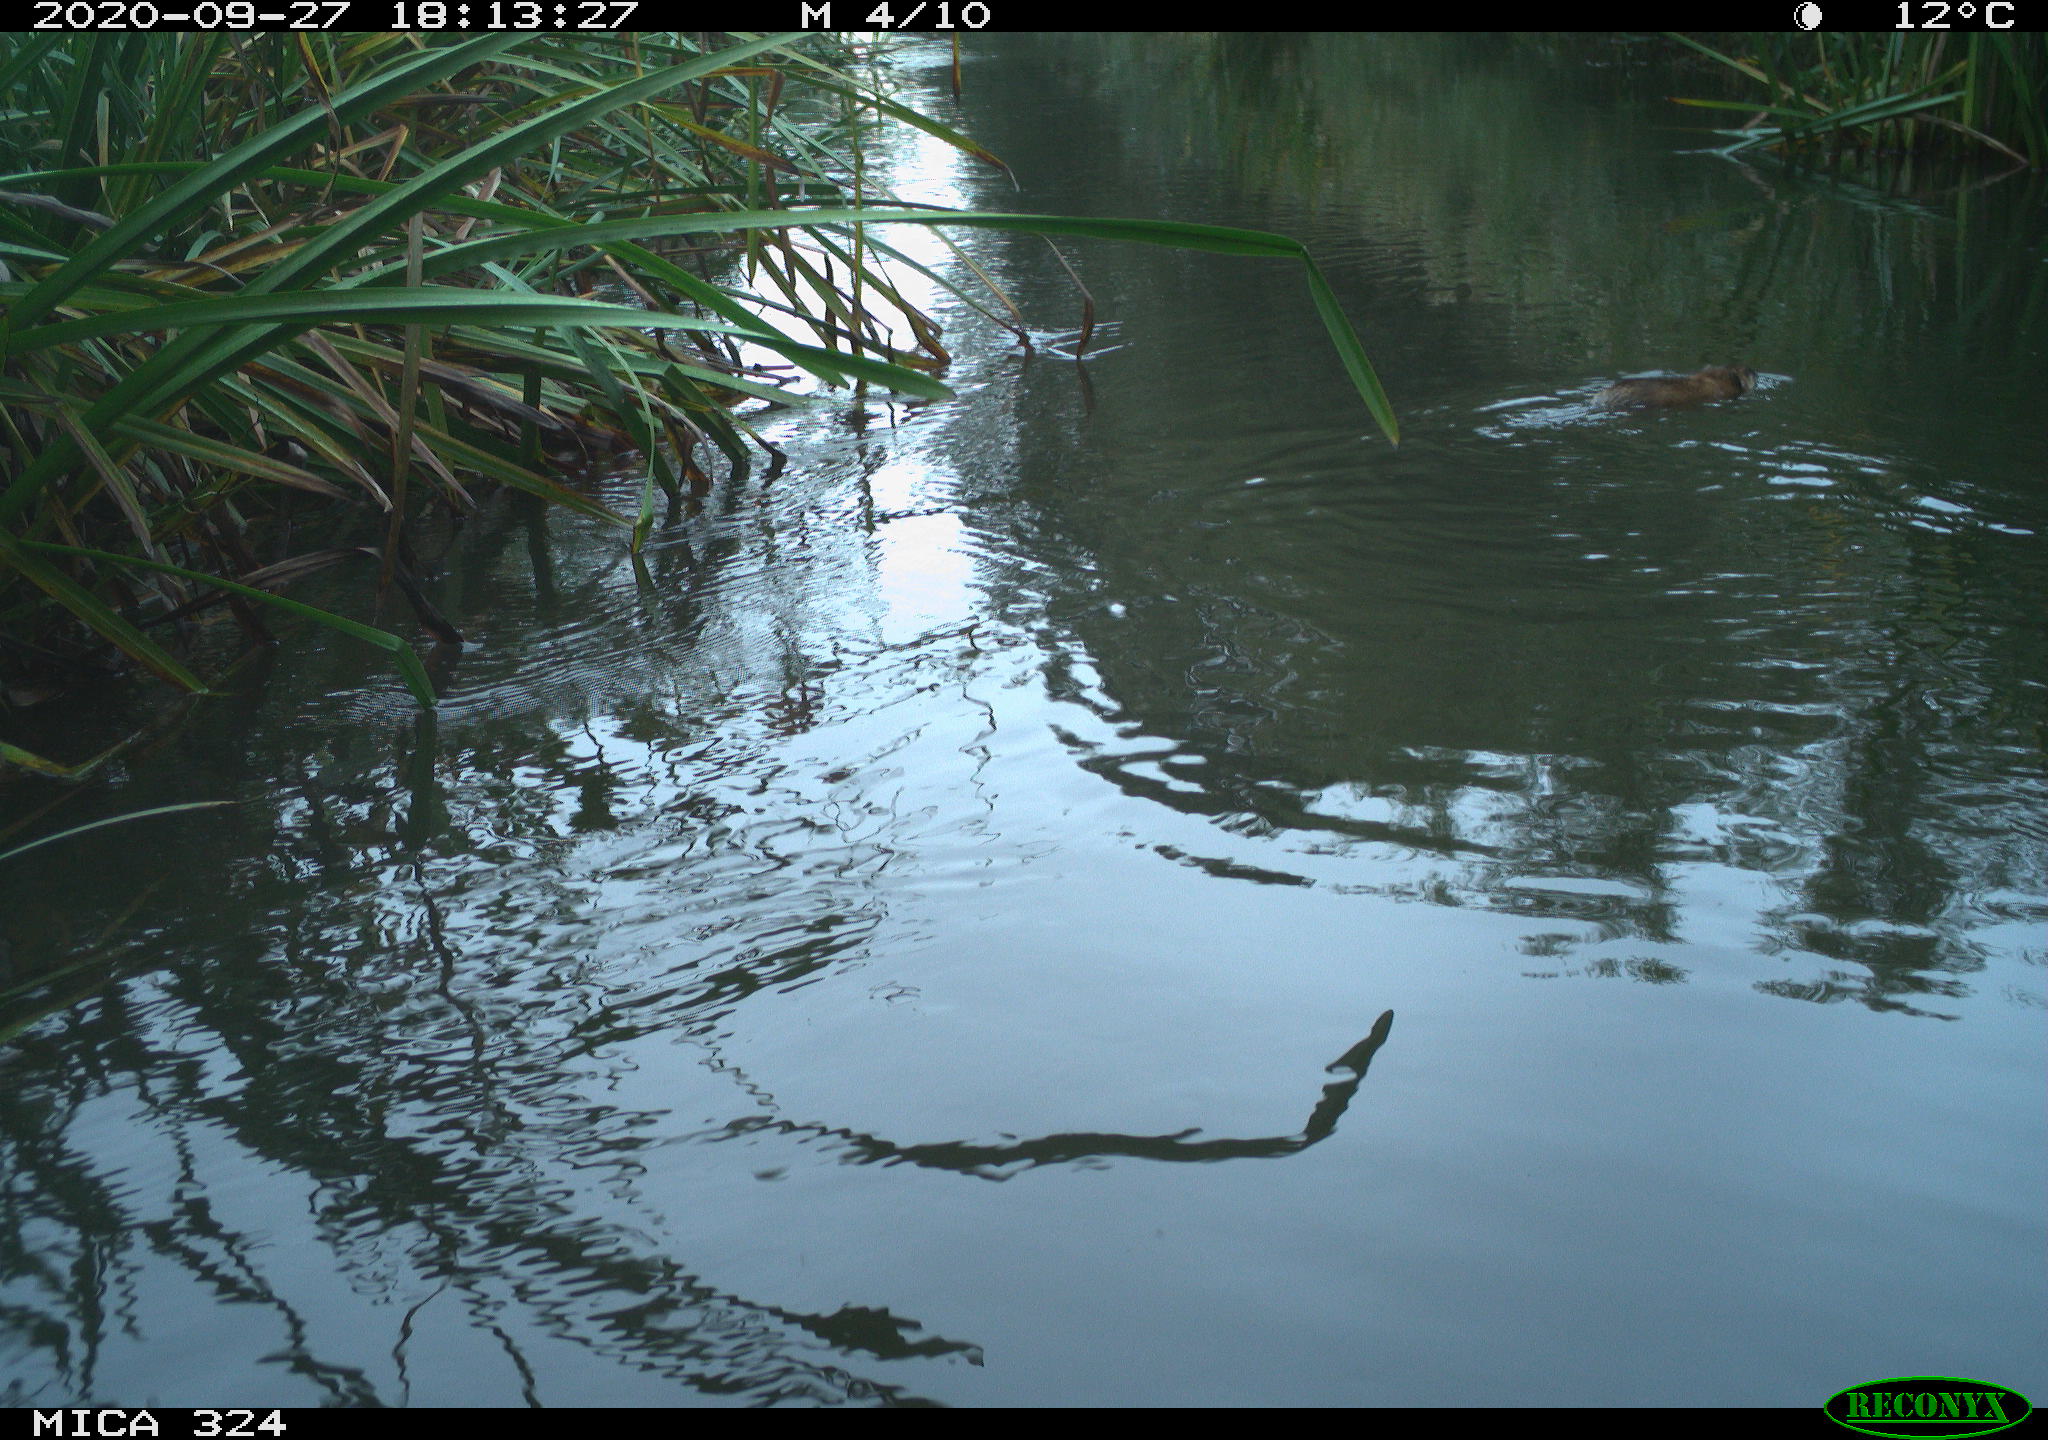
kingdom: Animalia
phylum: Chordata
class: Mammalia
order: Rodentia
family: Cricetidae
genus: Ondatra
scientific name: Ondatra zibethicus
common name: Muskrat
